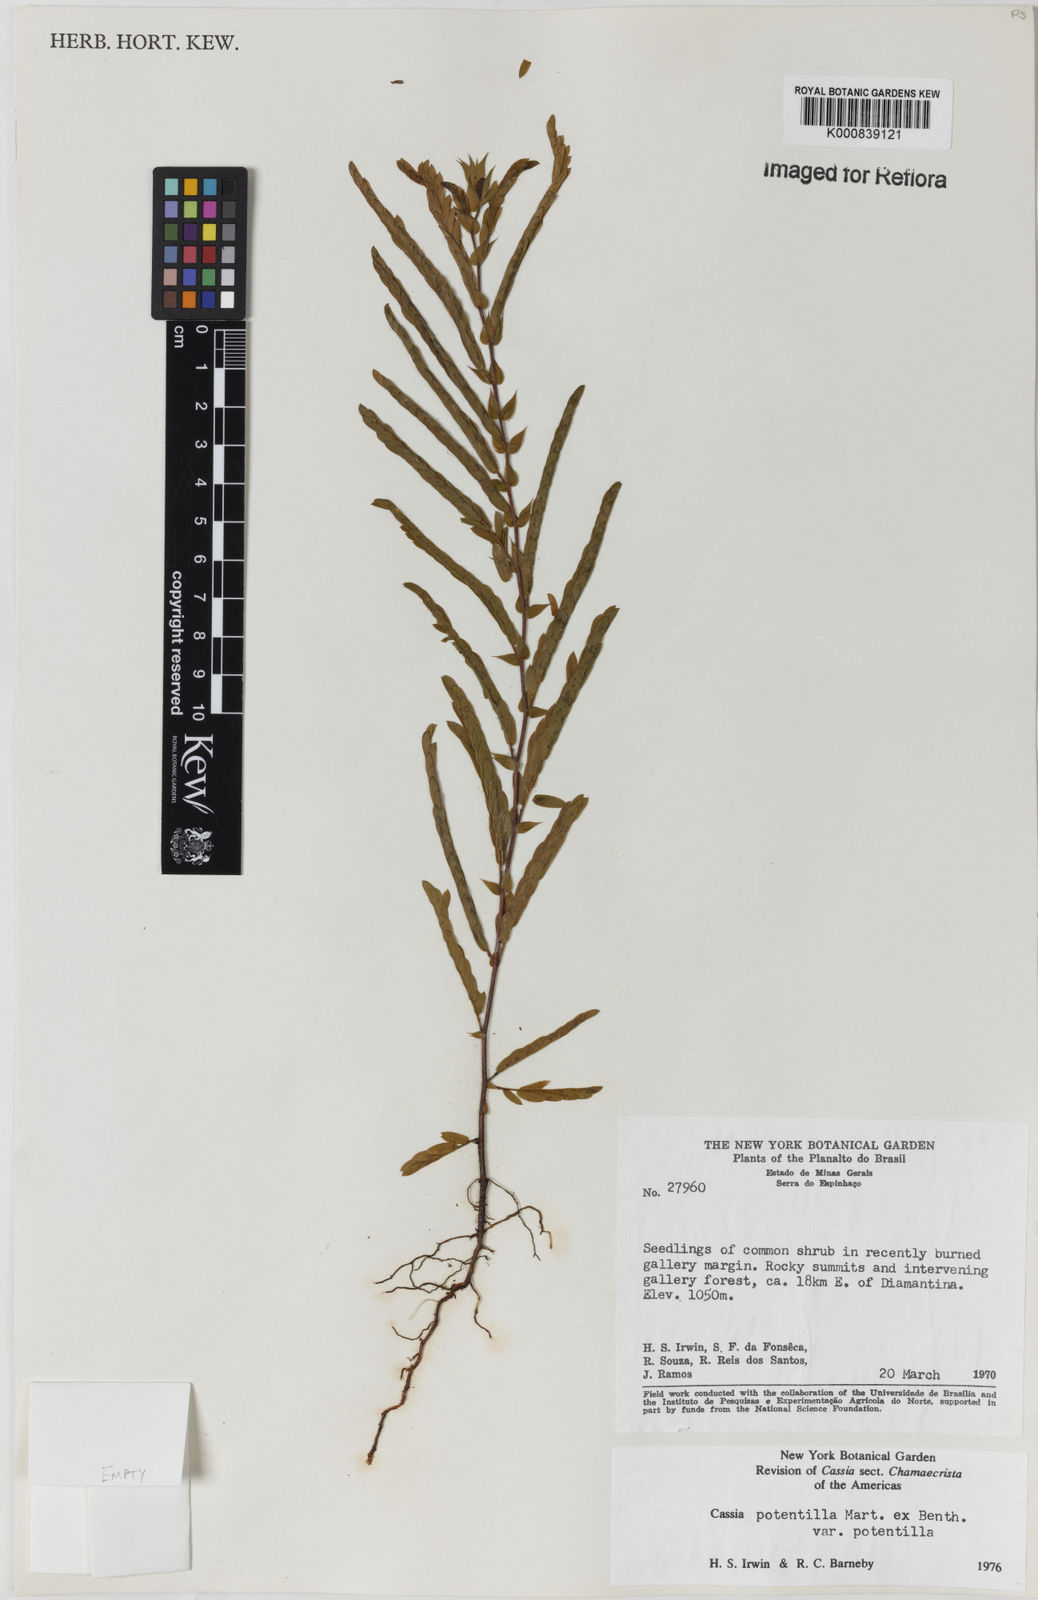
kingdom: Plantae
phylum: Tracheophyta
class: Magnoliopsida
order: Fabales
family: Fabaceae
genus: Chamaecrista
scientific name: Chamaecrista potentilla
